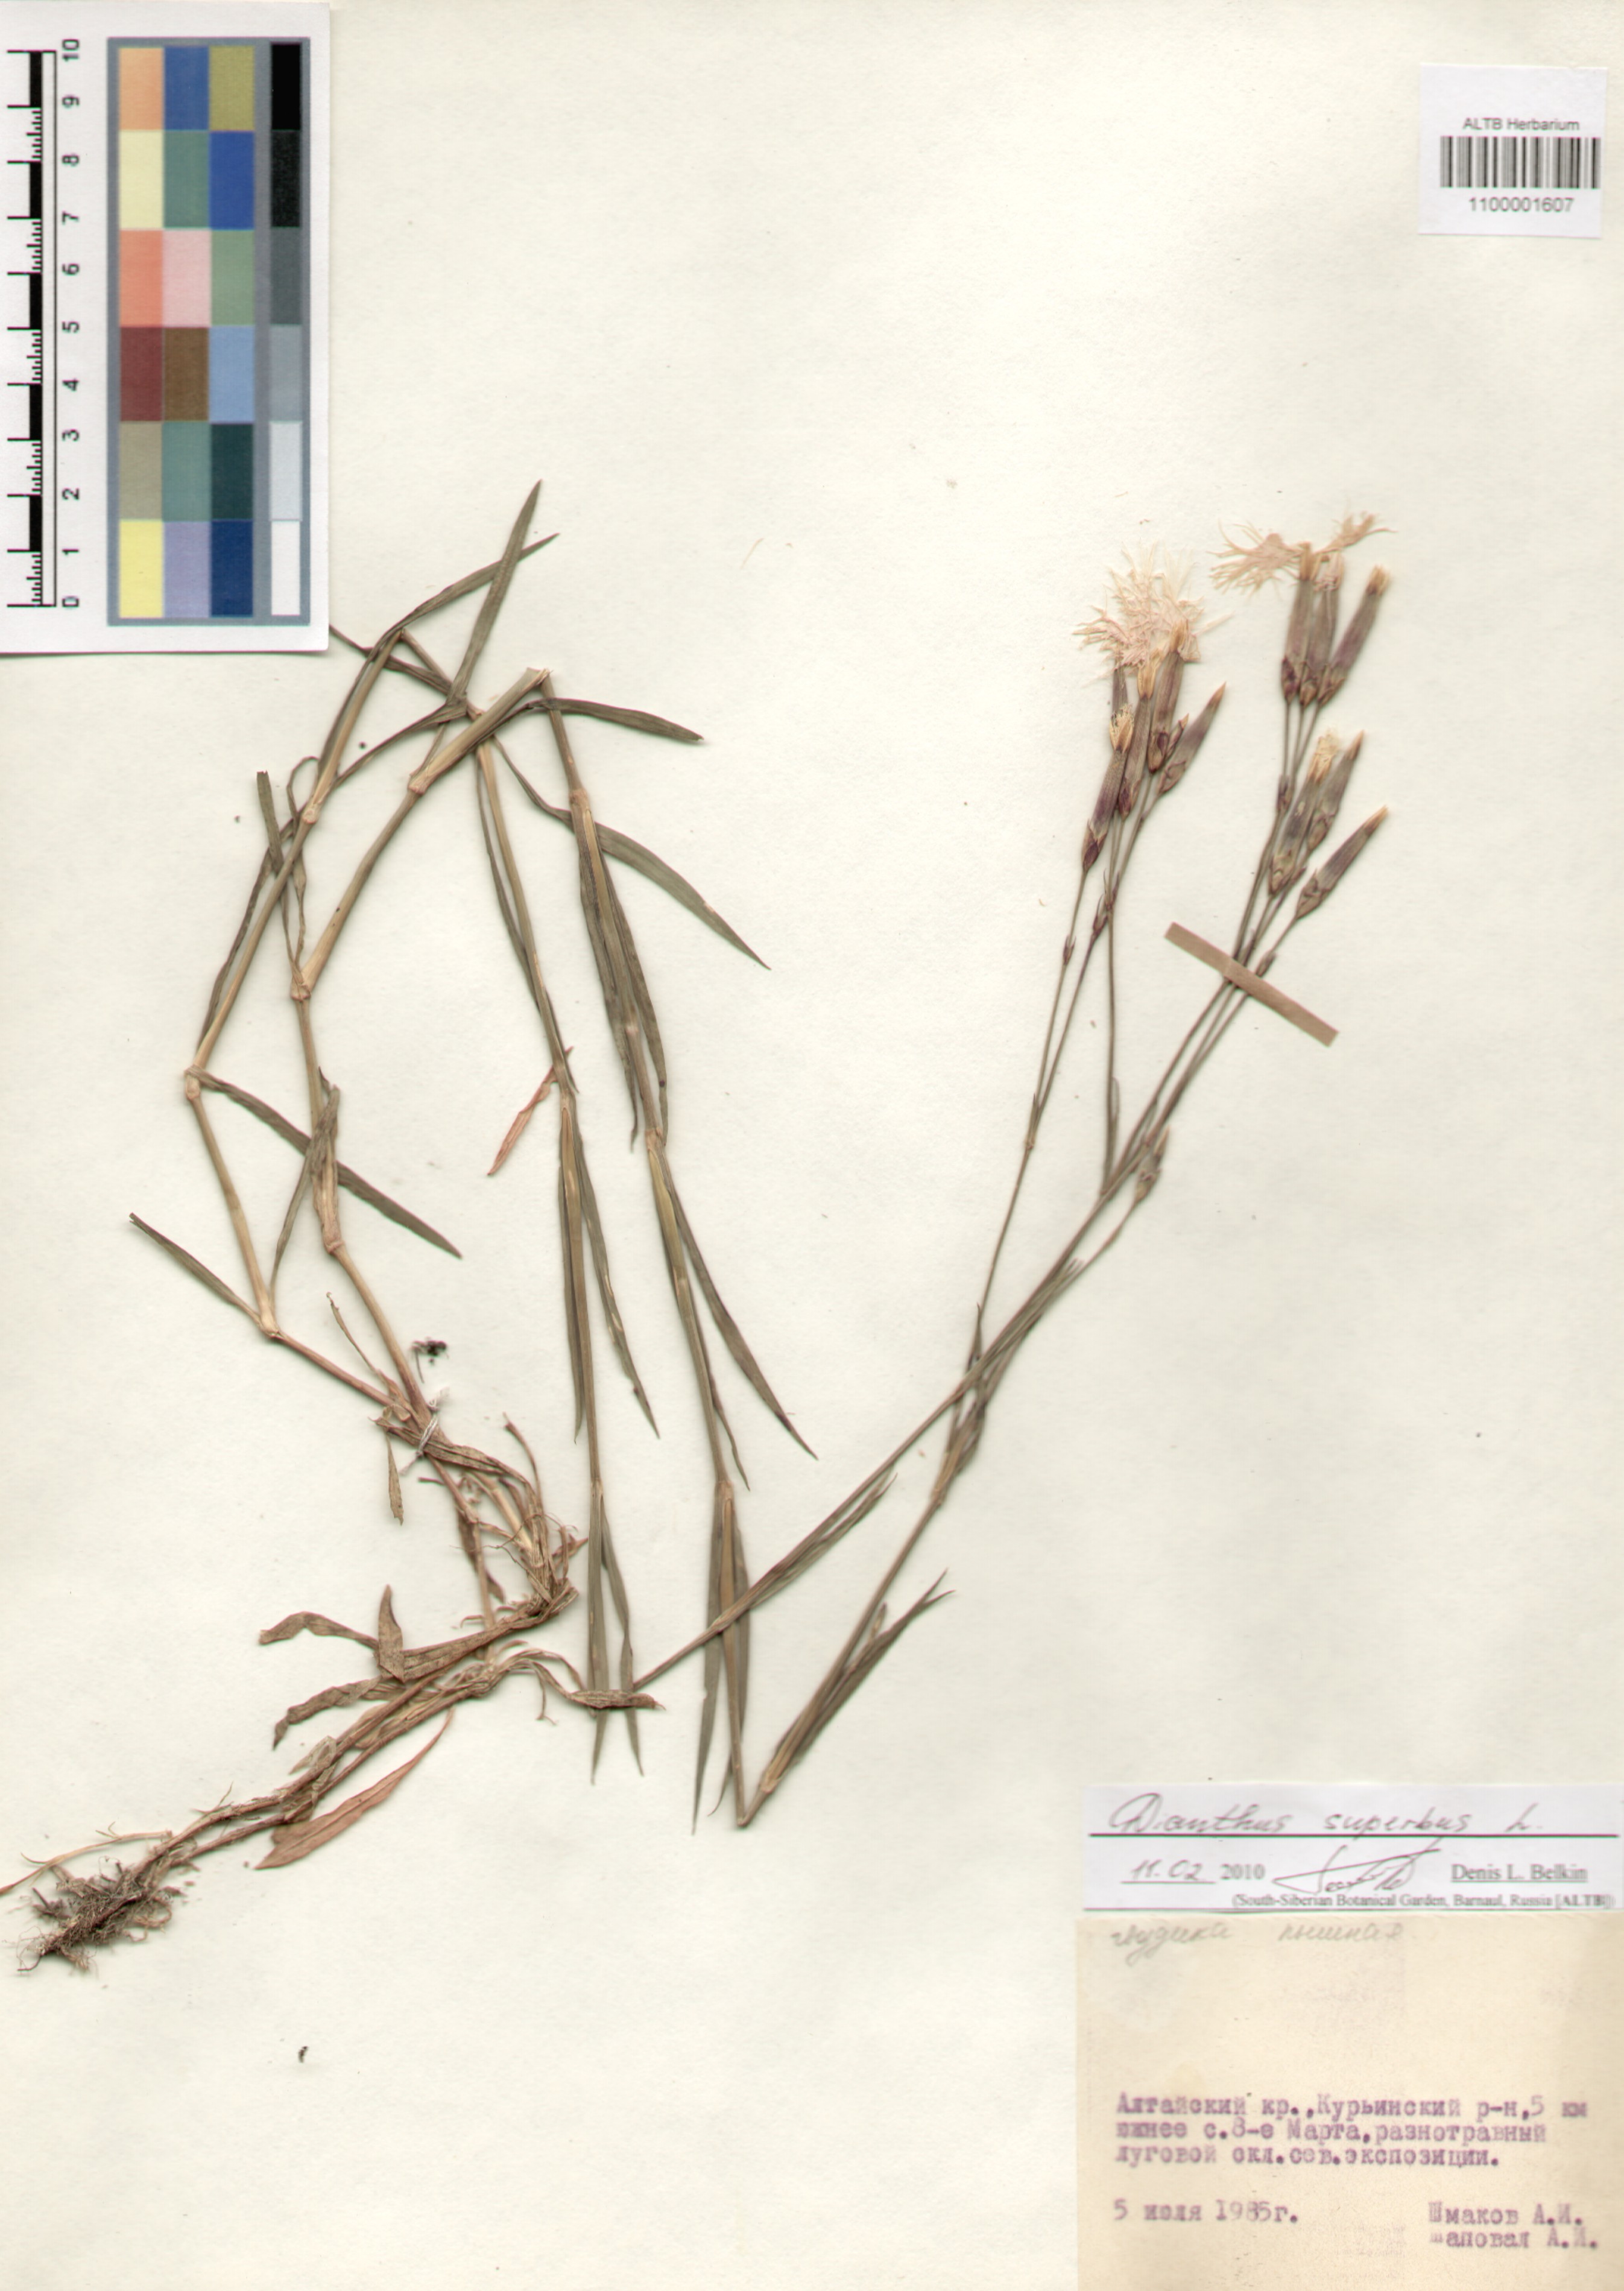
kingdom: Plantae
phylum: Tracheophyta
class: Magnoliopsida
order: Caryophyllales
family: Caryophyllaceae
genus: Dianthus
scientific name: Dianthus superbus
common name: Fringed pink
